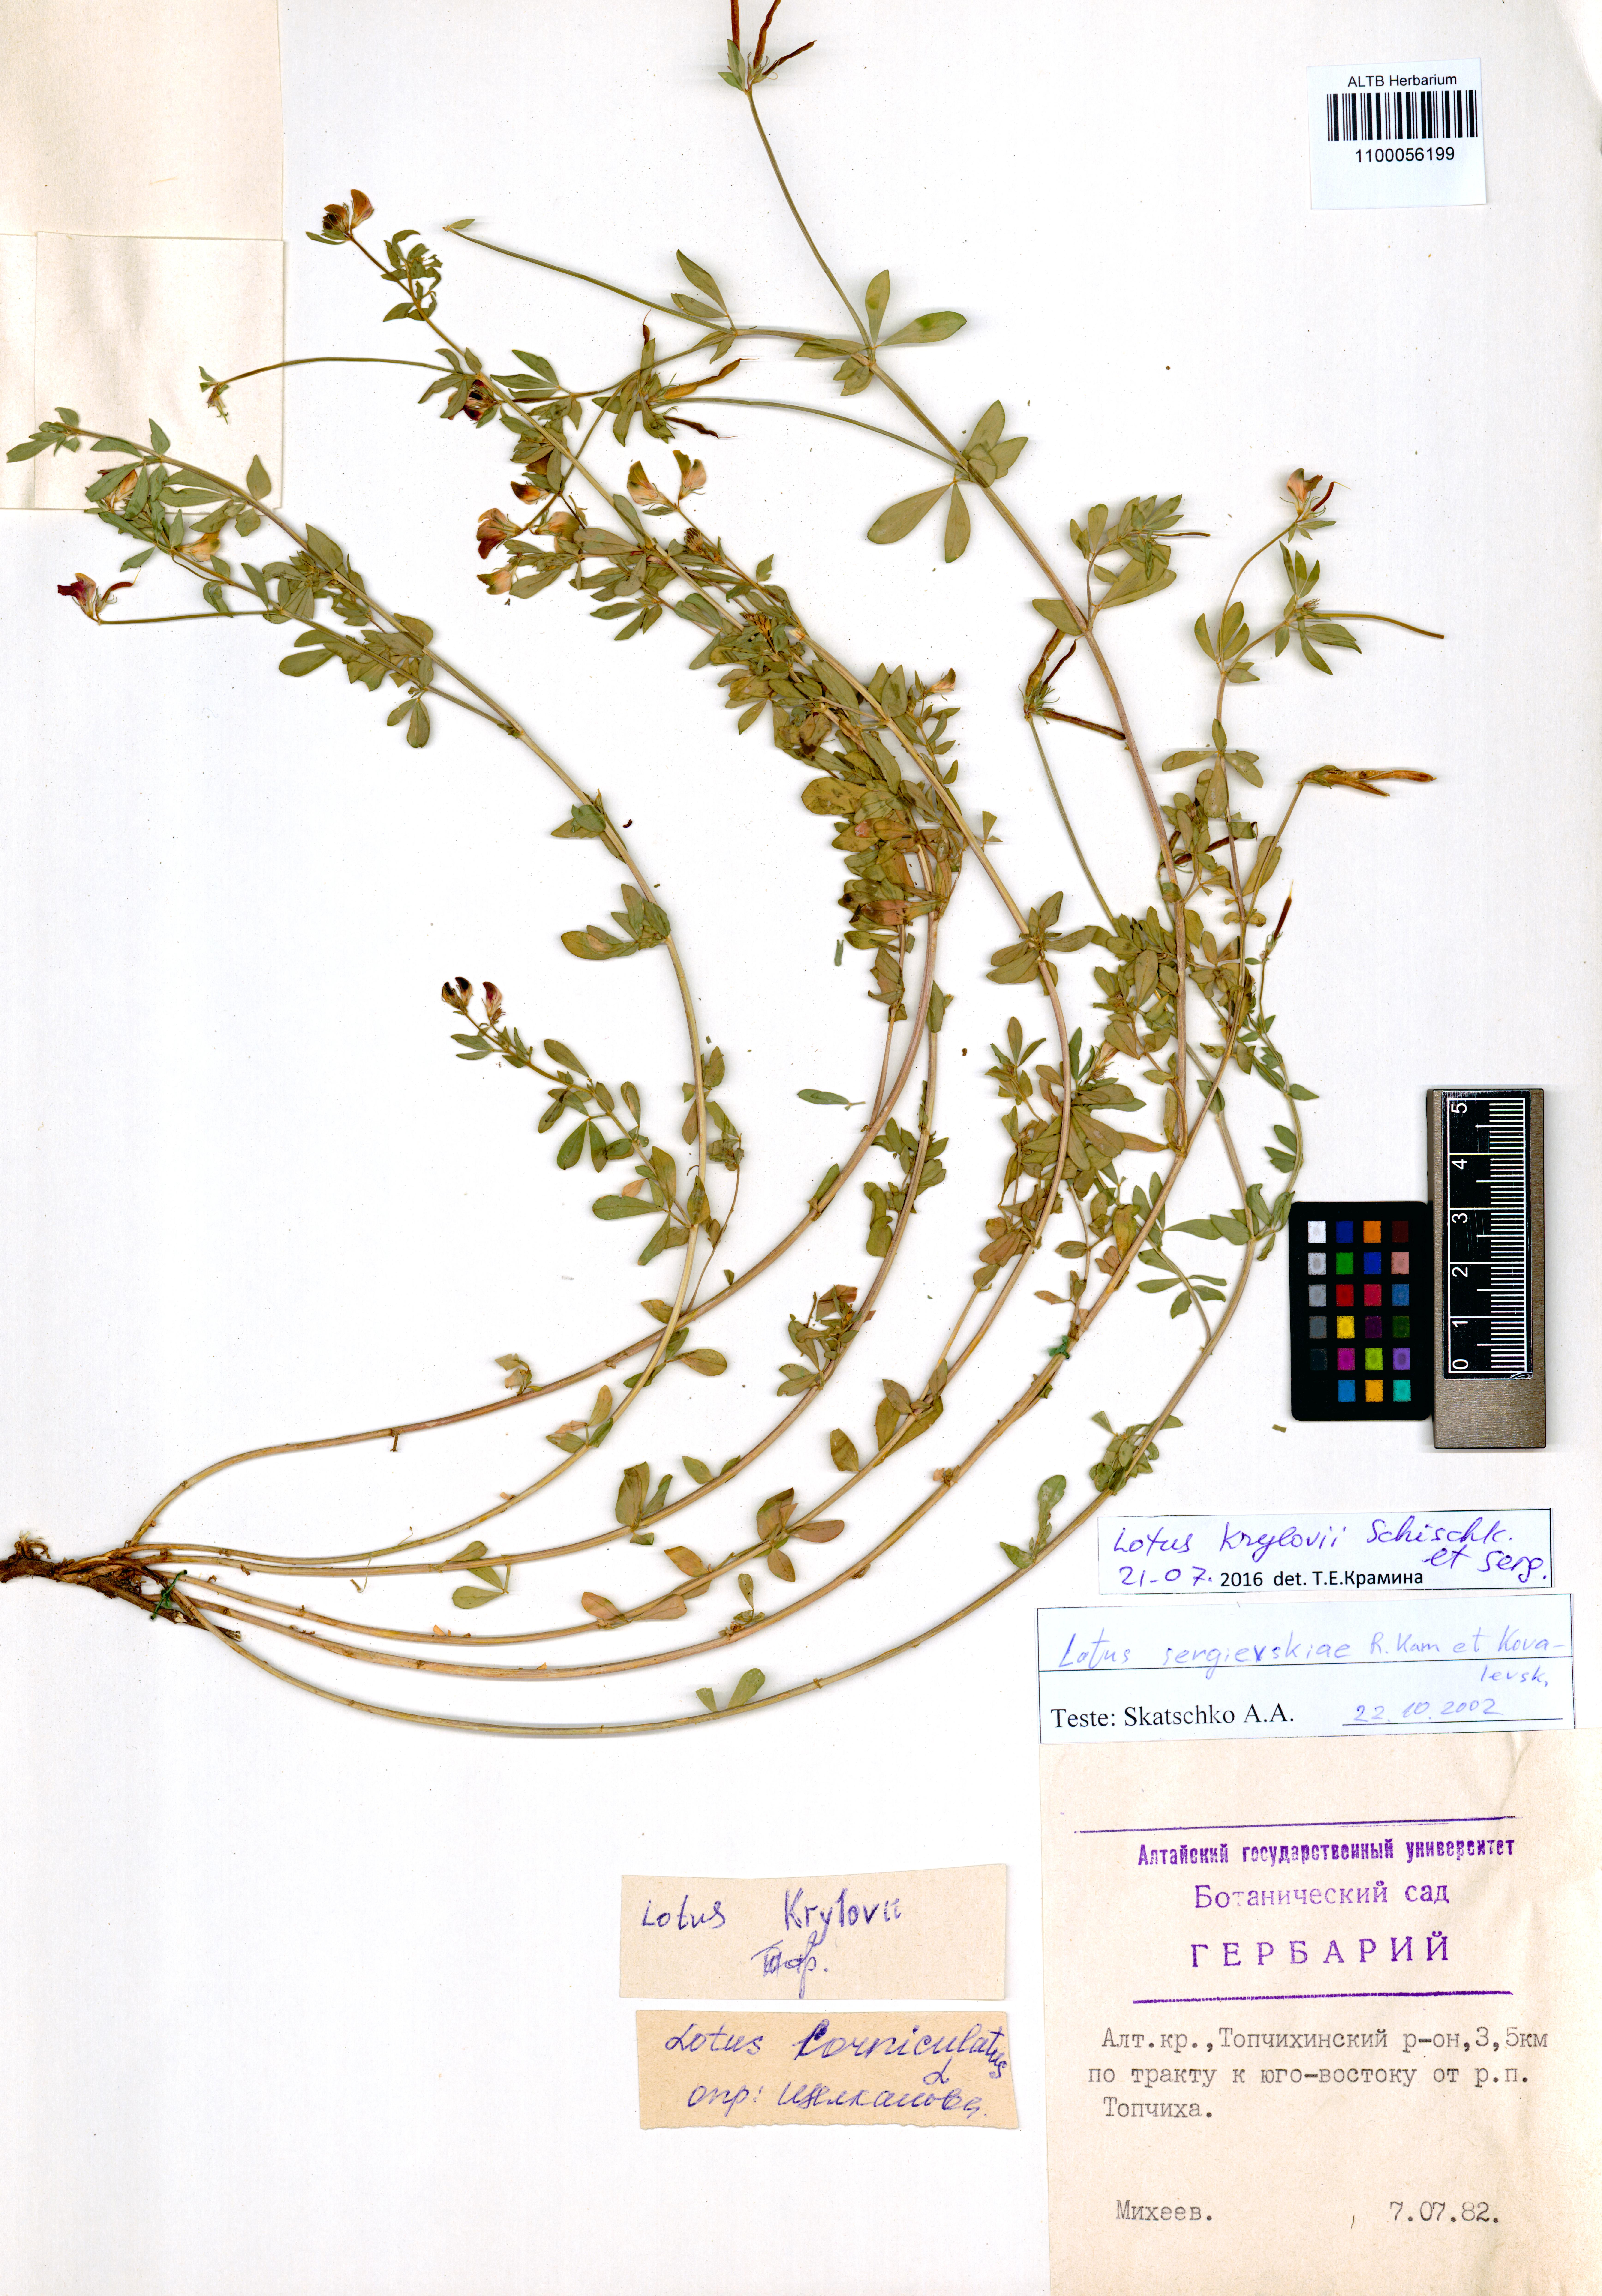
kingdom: Plantae
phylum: Tracheophyta
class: Magnoliopsida
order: Fabales
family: Fabaceae
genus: Lotus
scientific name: Lotus krylovii
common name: Krylov's bird's-foot trefoil
